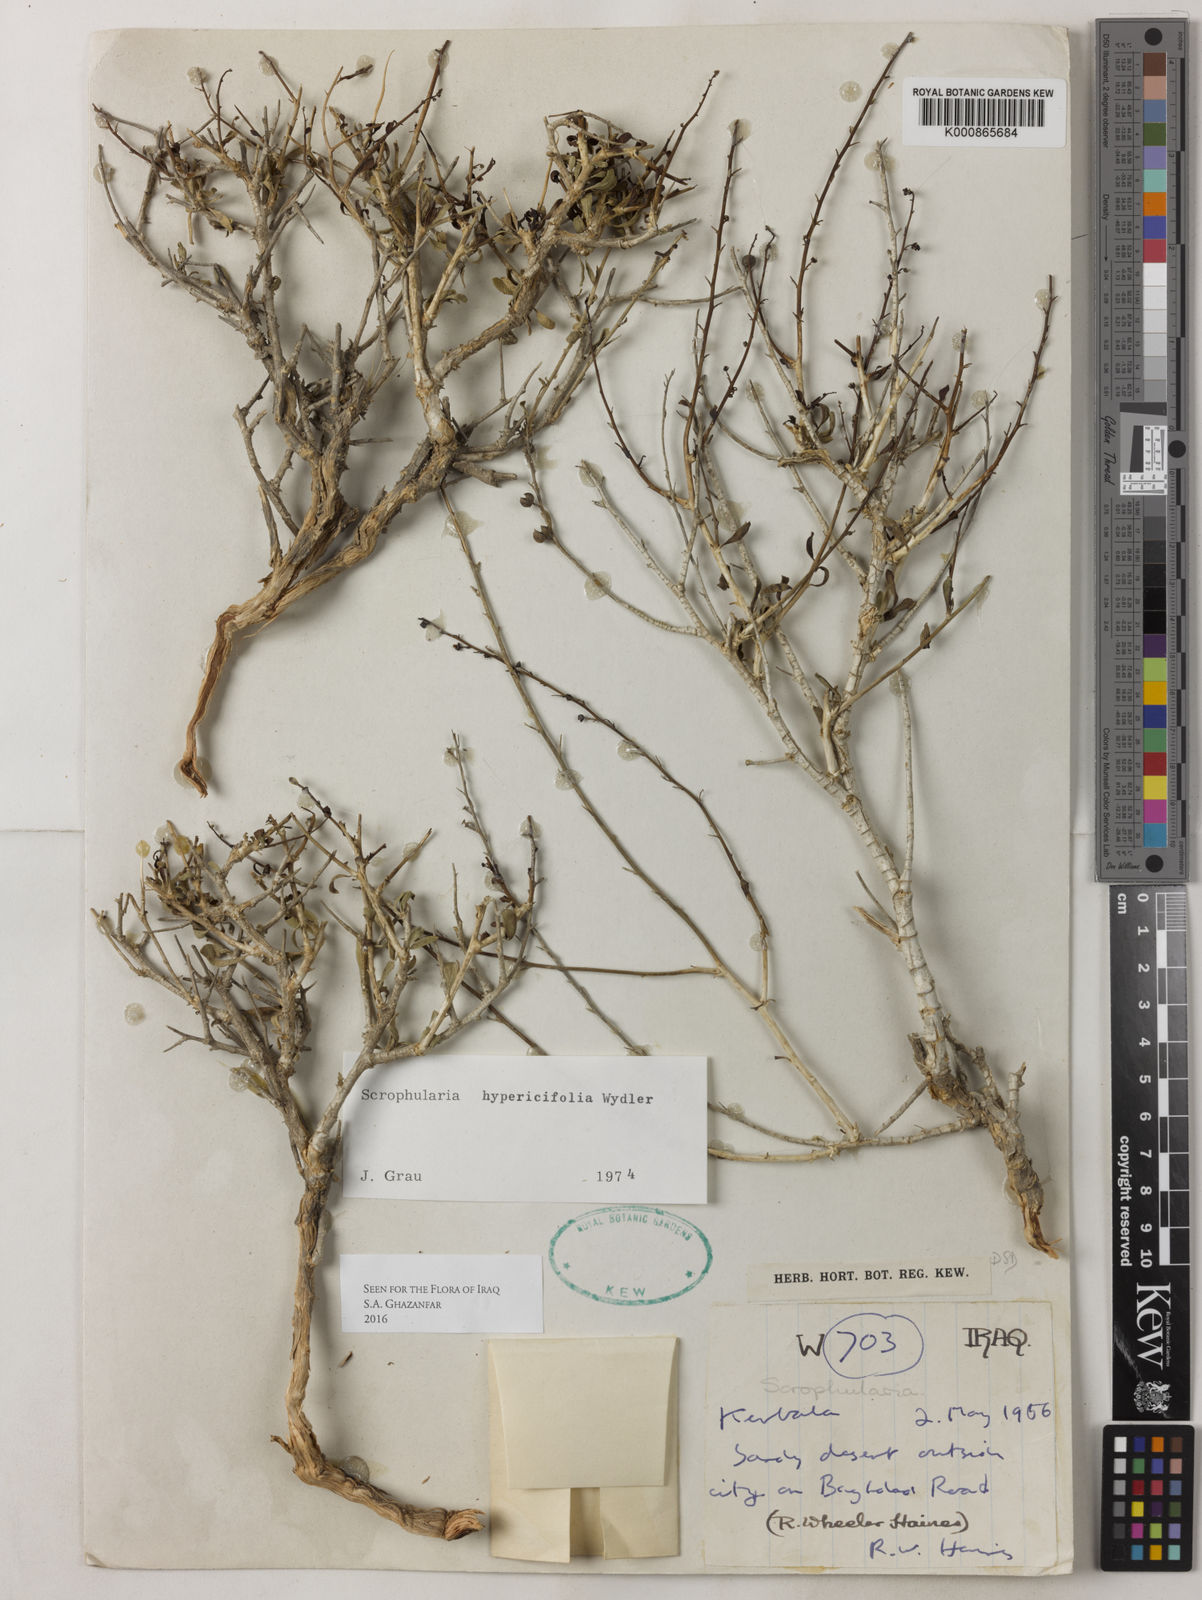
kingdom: Plantae
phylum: Tracheophyta
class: Magnoliopsida
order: Lamiales
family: Scrophulariaceae
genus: Scrophularia
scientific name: Scrophularia hypericifolia
